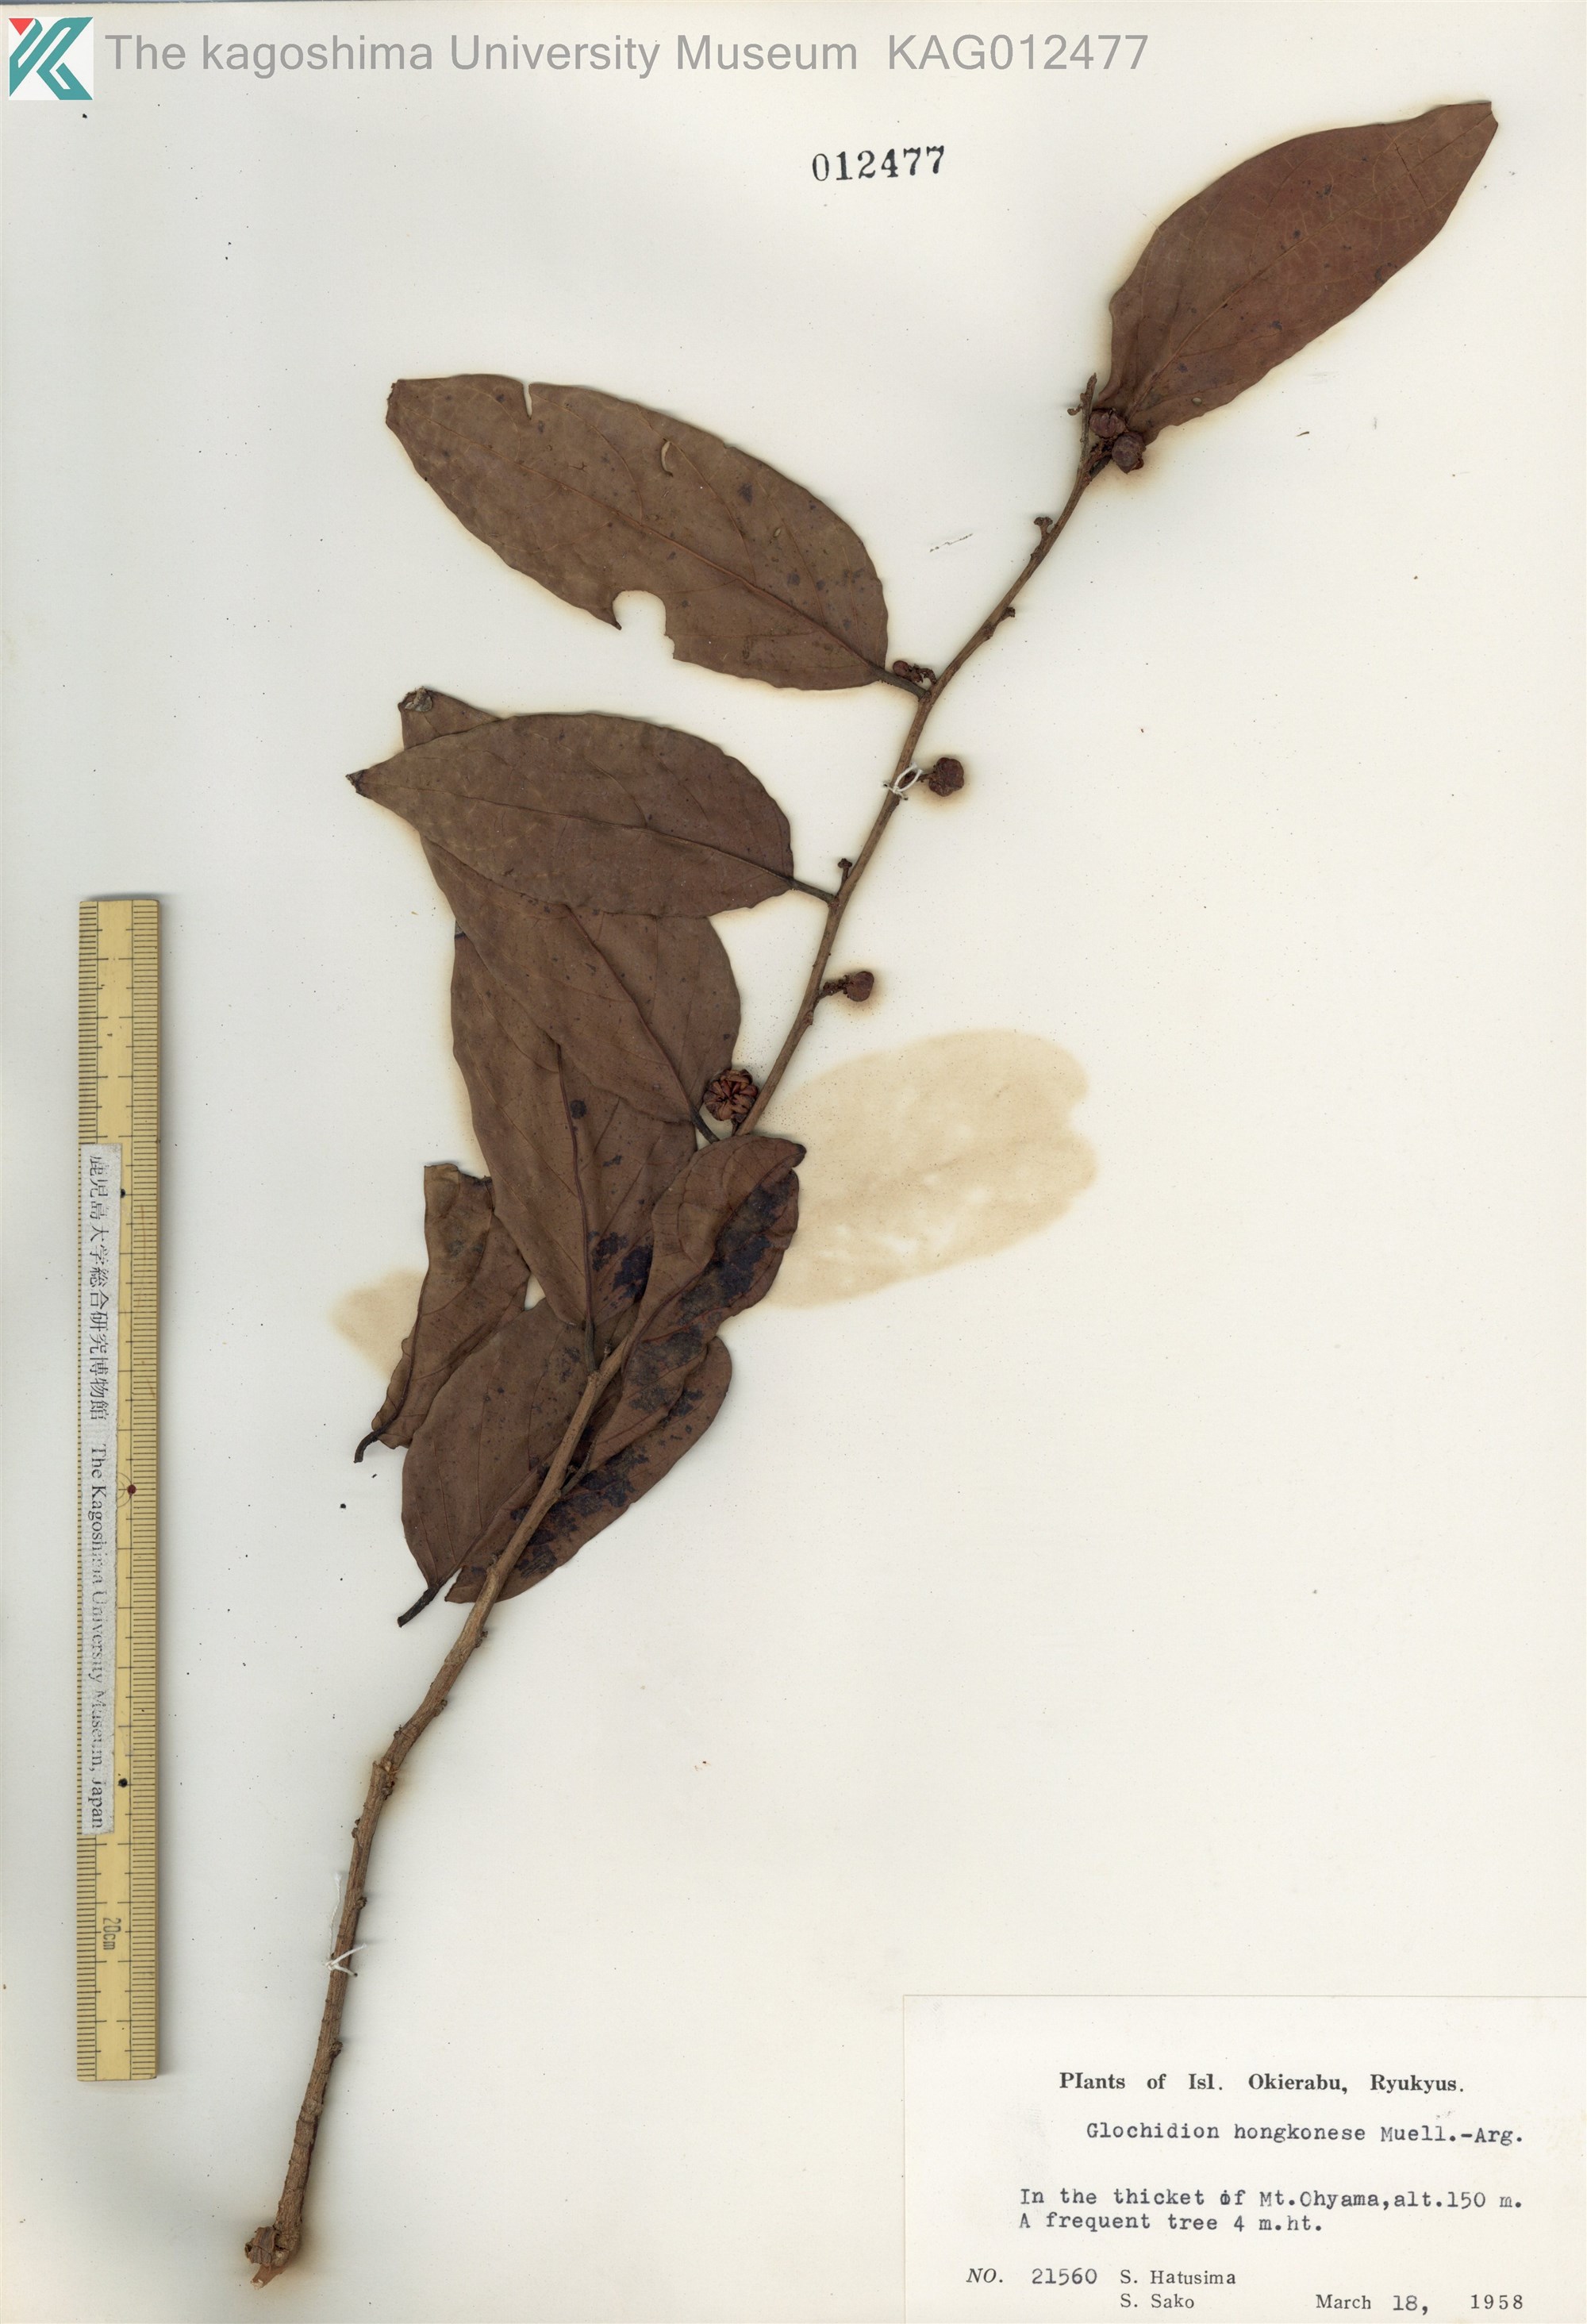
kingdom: Plantae
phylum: Tracheophyta
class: Magnoliopsida
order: Malpighiales
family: Phyllanthaceae
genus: Glochidion
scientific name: Glochidion zeylanicum
